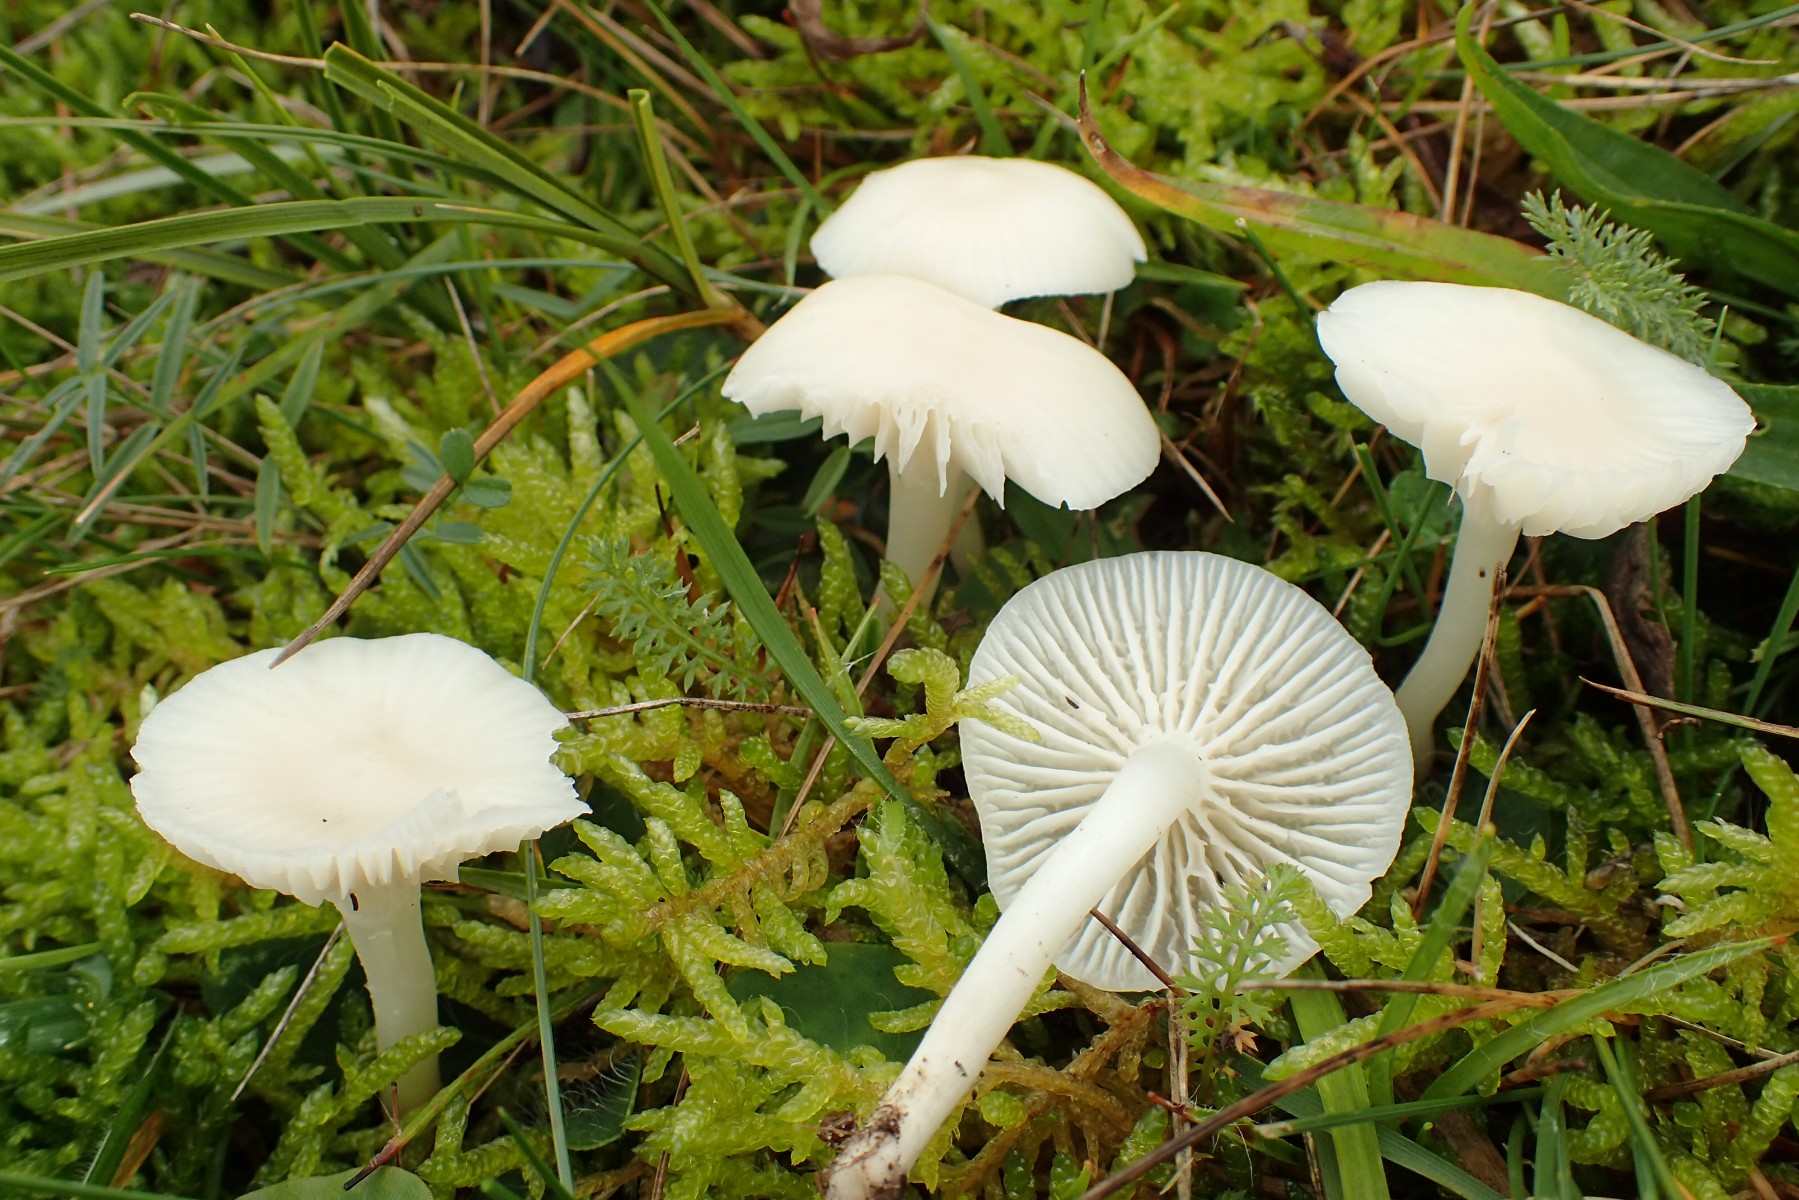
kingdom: Fungi
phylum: Basidiomycota
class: Agaricomycetes
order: Agaricales
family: Hygrophoraceae
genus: Cuphophyllus
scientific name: Cuphophyllus virgineus
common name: snehvid vokshat
